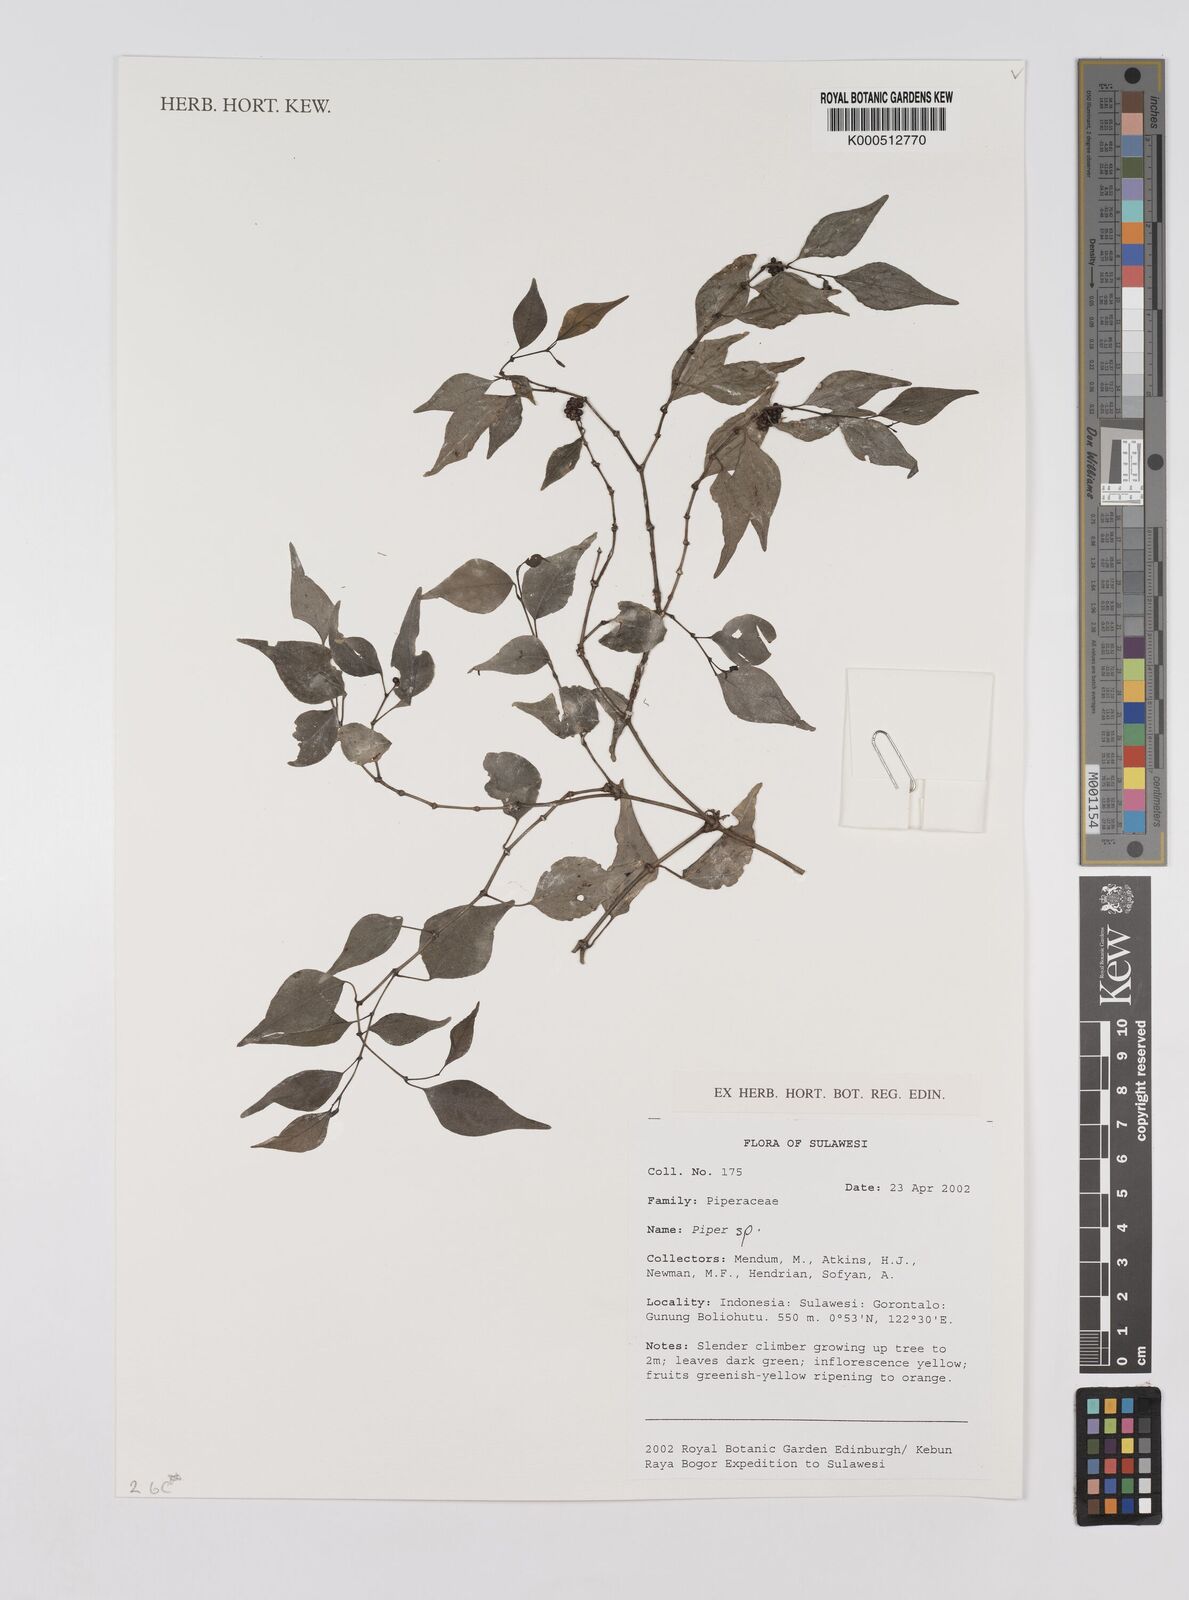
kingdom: Plantae
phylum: Tracheophyta
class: Magnoliopsida
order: Piperales
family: Piperaceae
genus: Piper
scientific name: Piper
